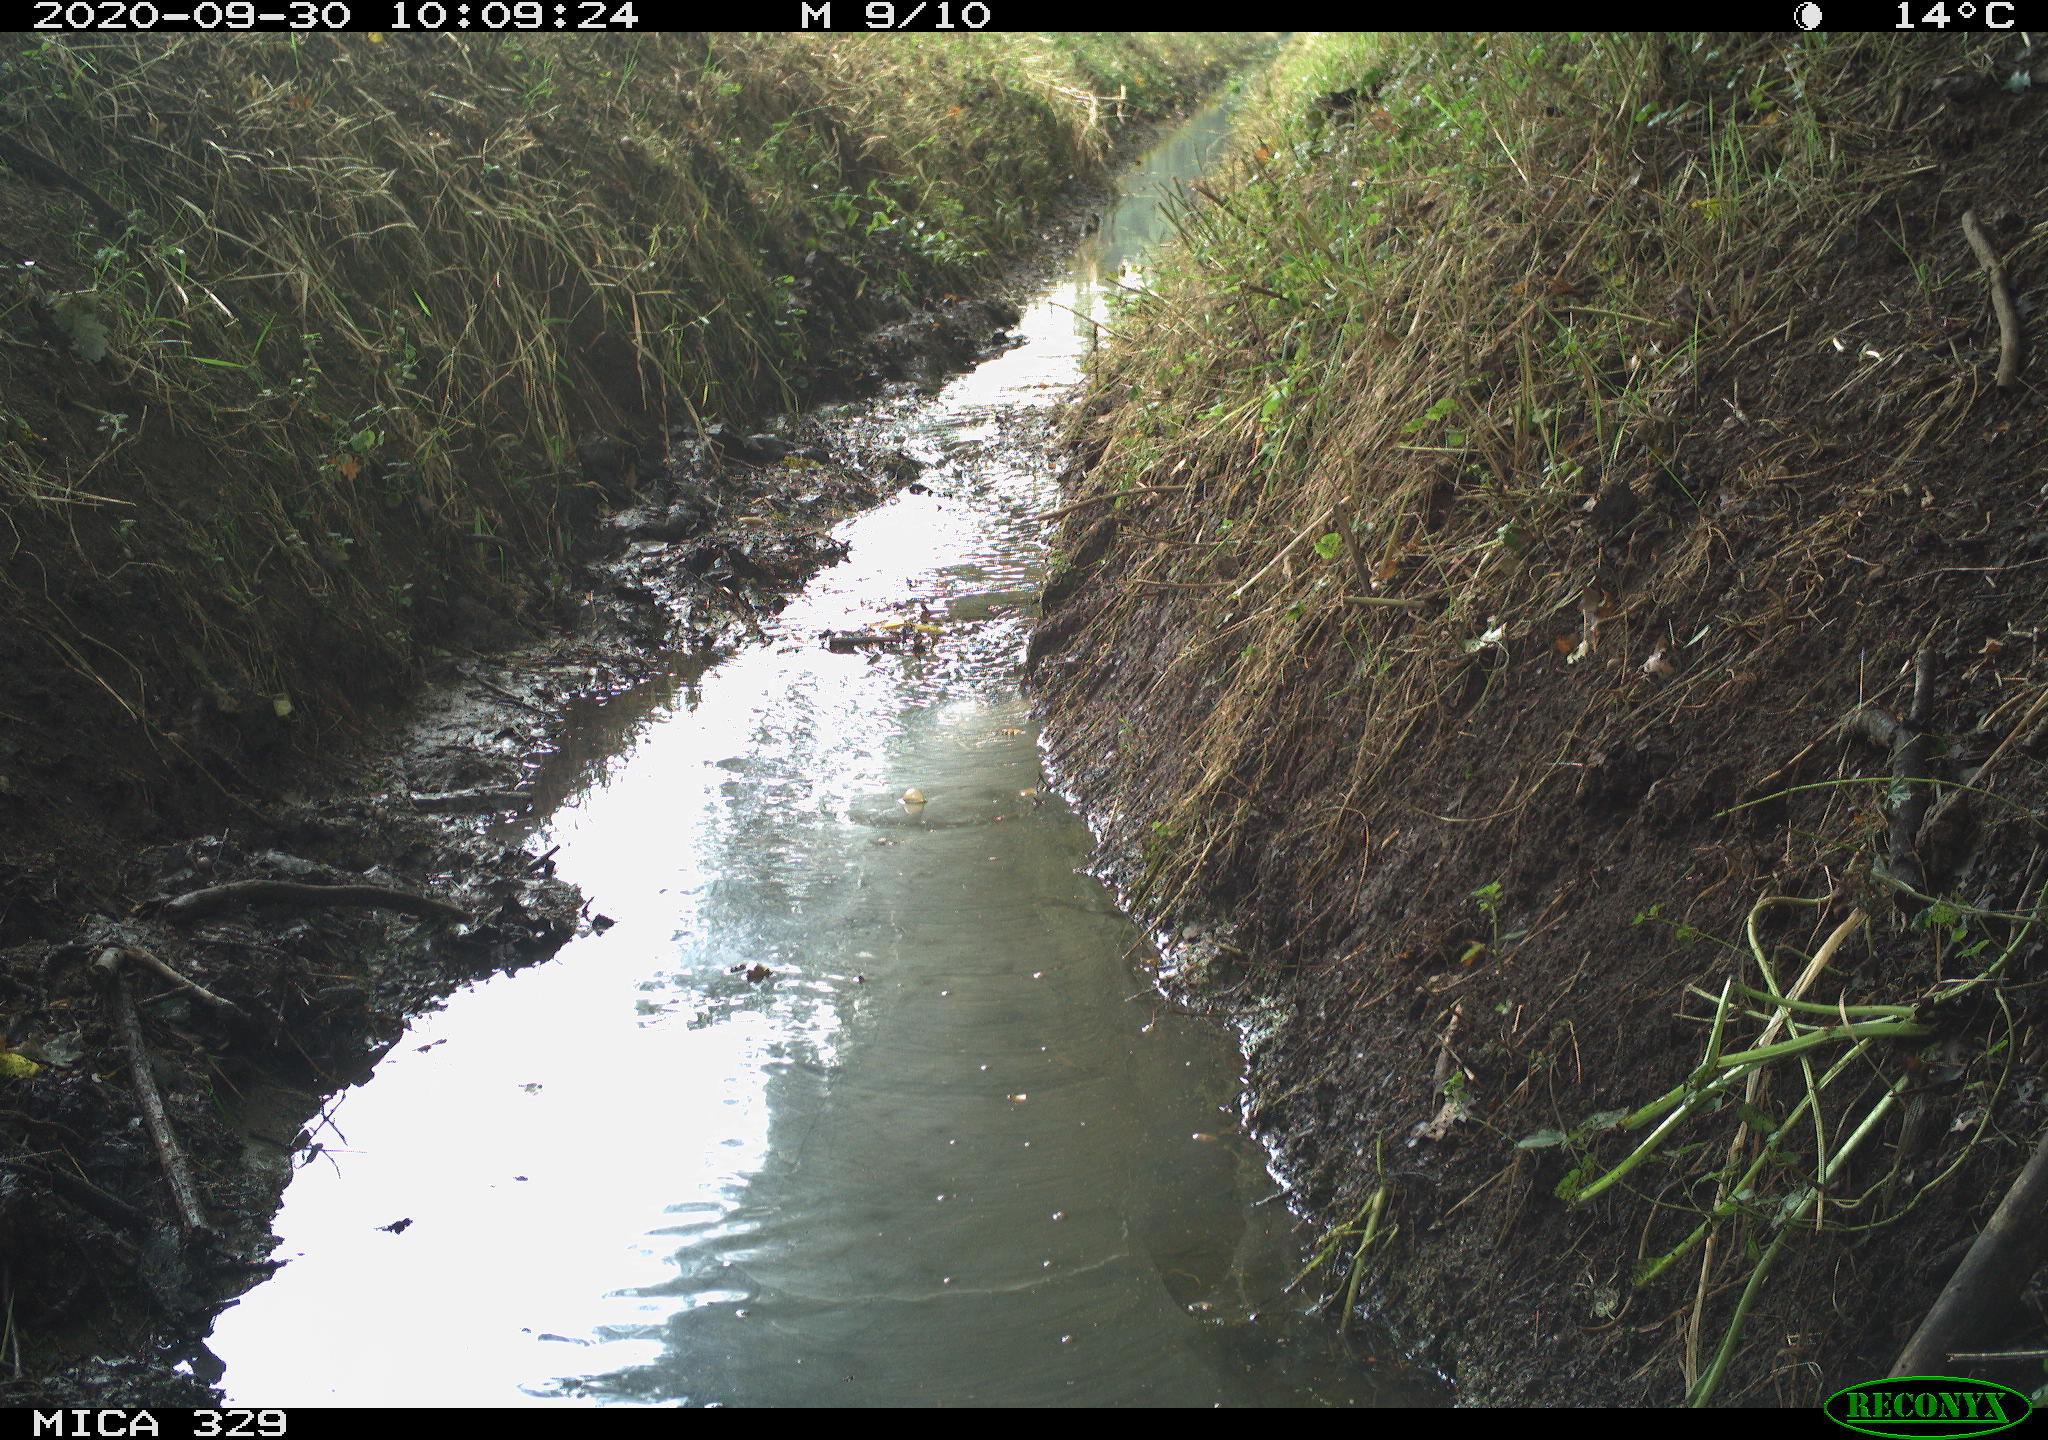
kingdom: Animalia
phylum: Chordata
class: Aves
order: Columbiformes
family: Columbidae
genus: Columba
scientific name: Columba palumbus
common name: Common wood pigeon
